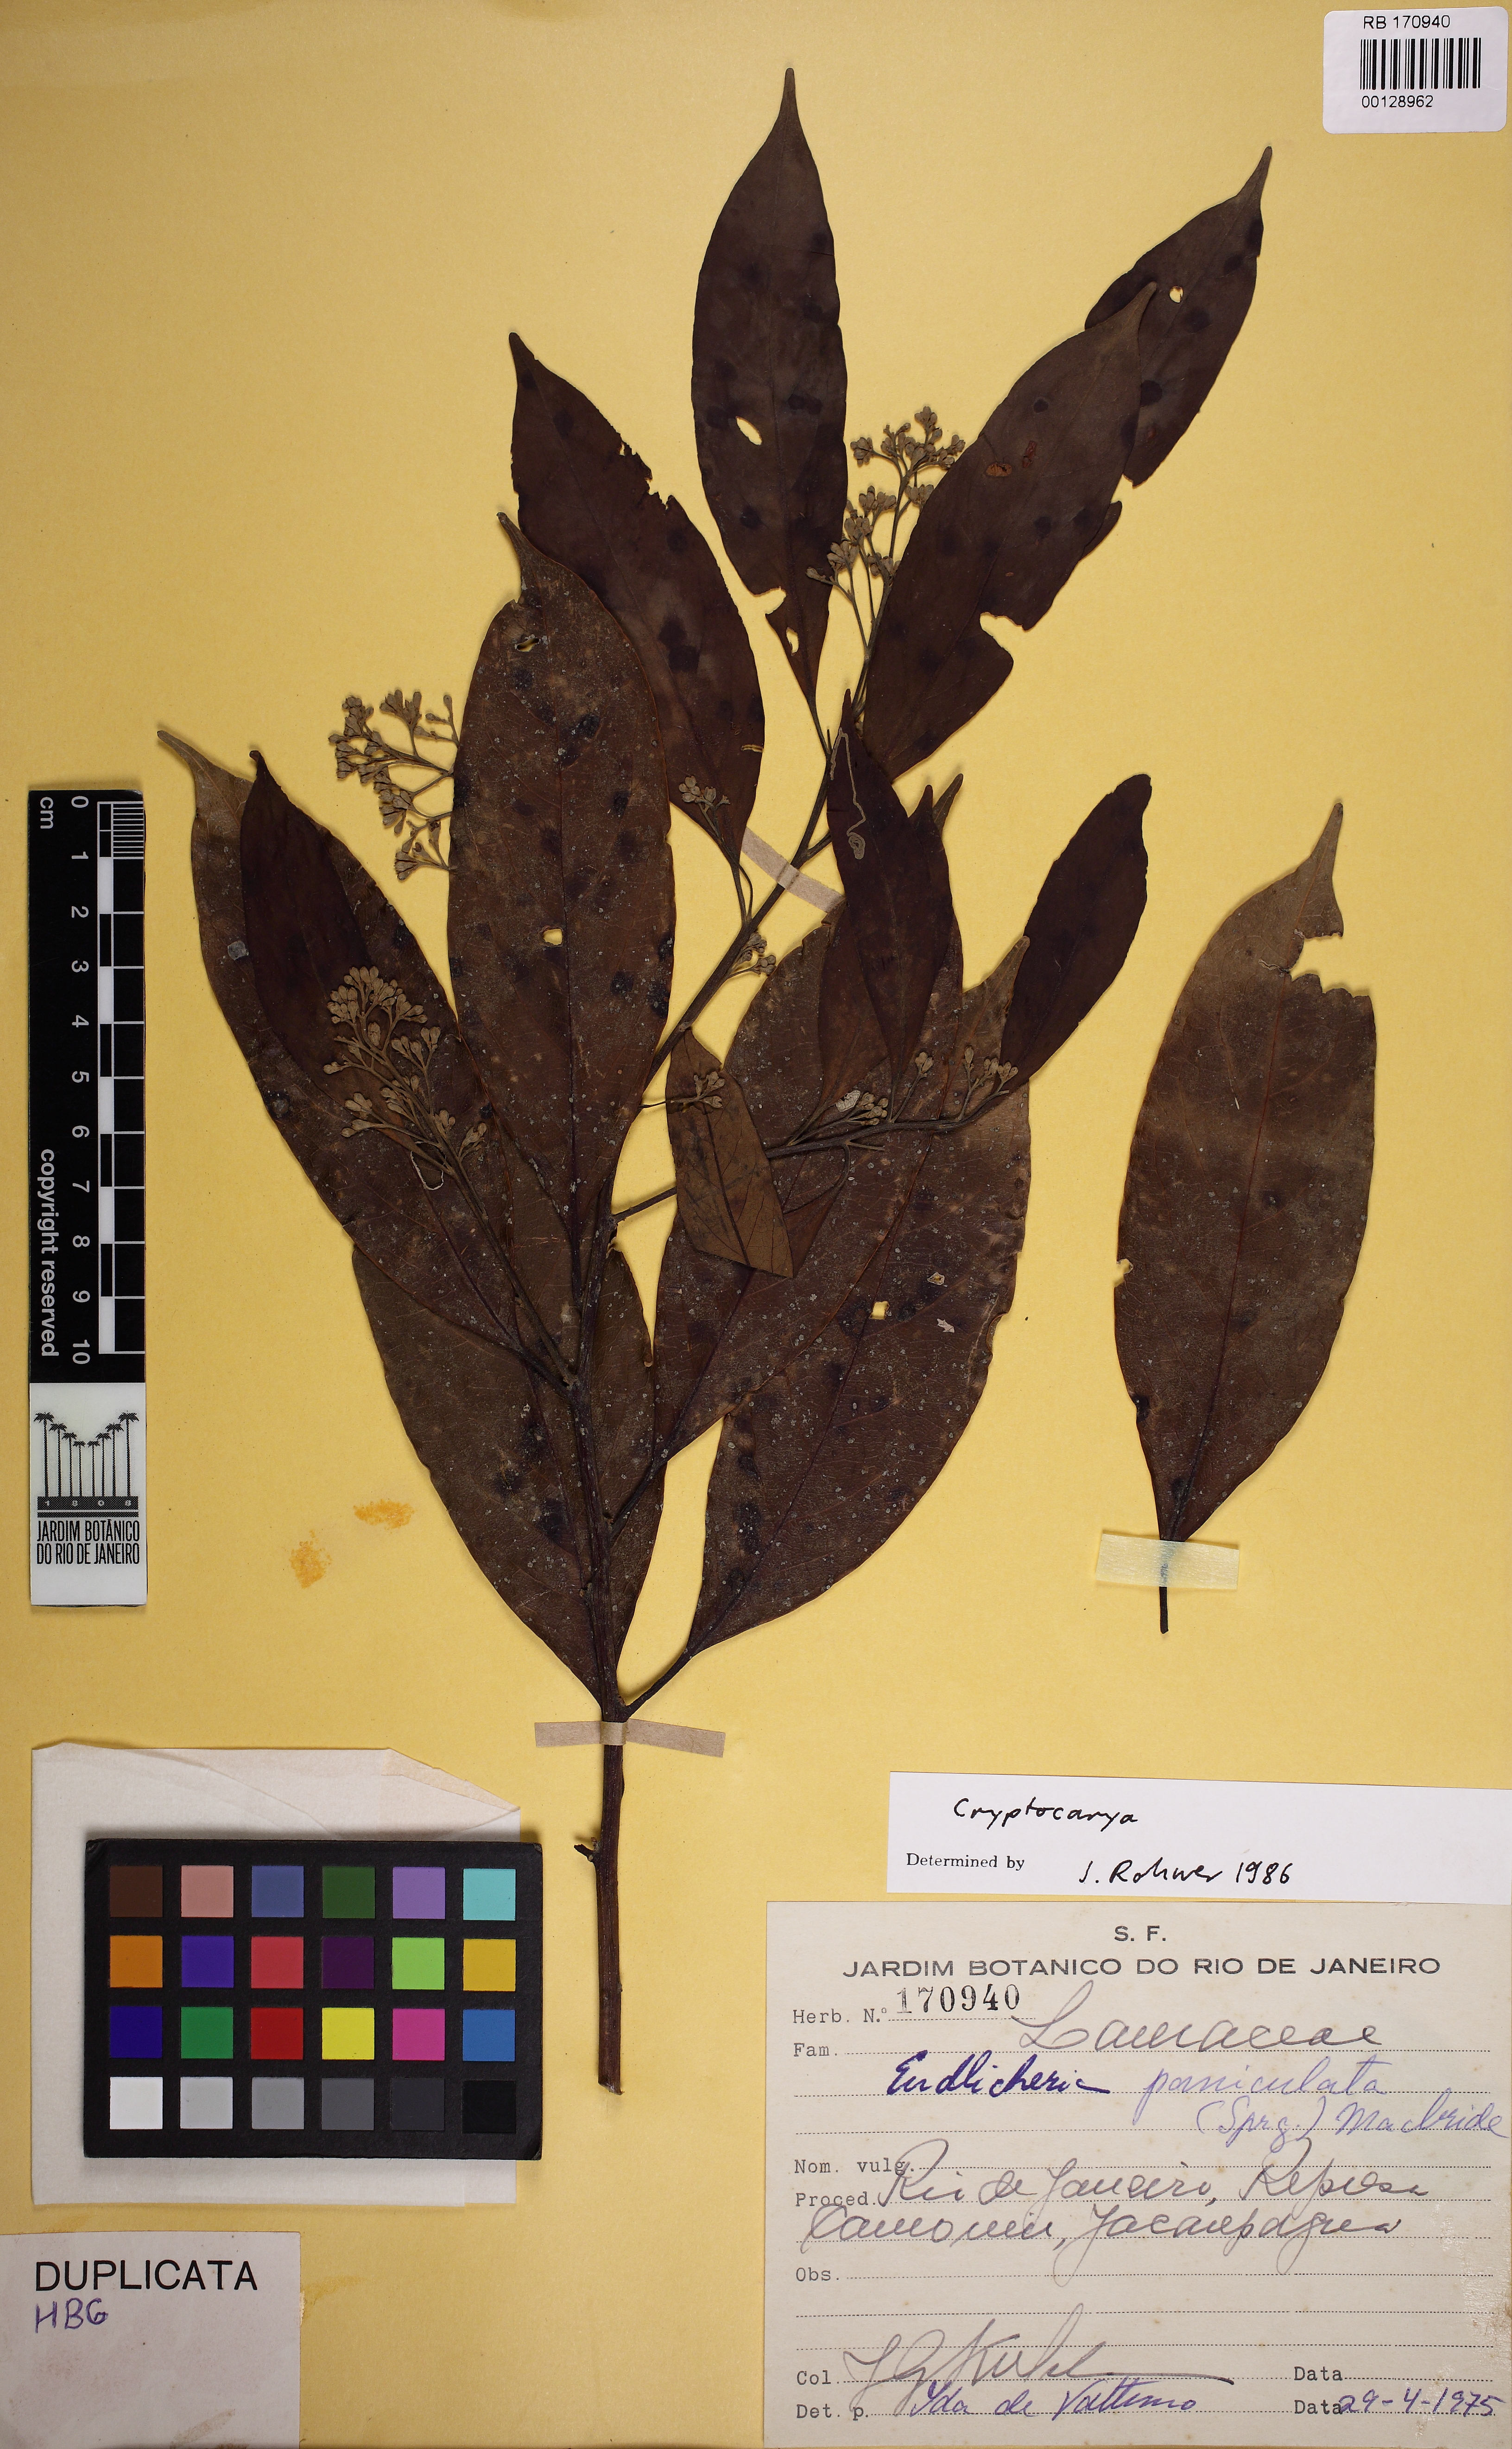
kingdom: Plantae
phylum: Tracheophyta
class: Magnoliopsida
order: Laurales
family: Lauraceae
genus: Endlicheria
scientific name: Endlicheria paniculata
